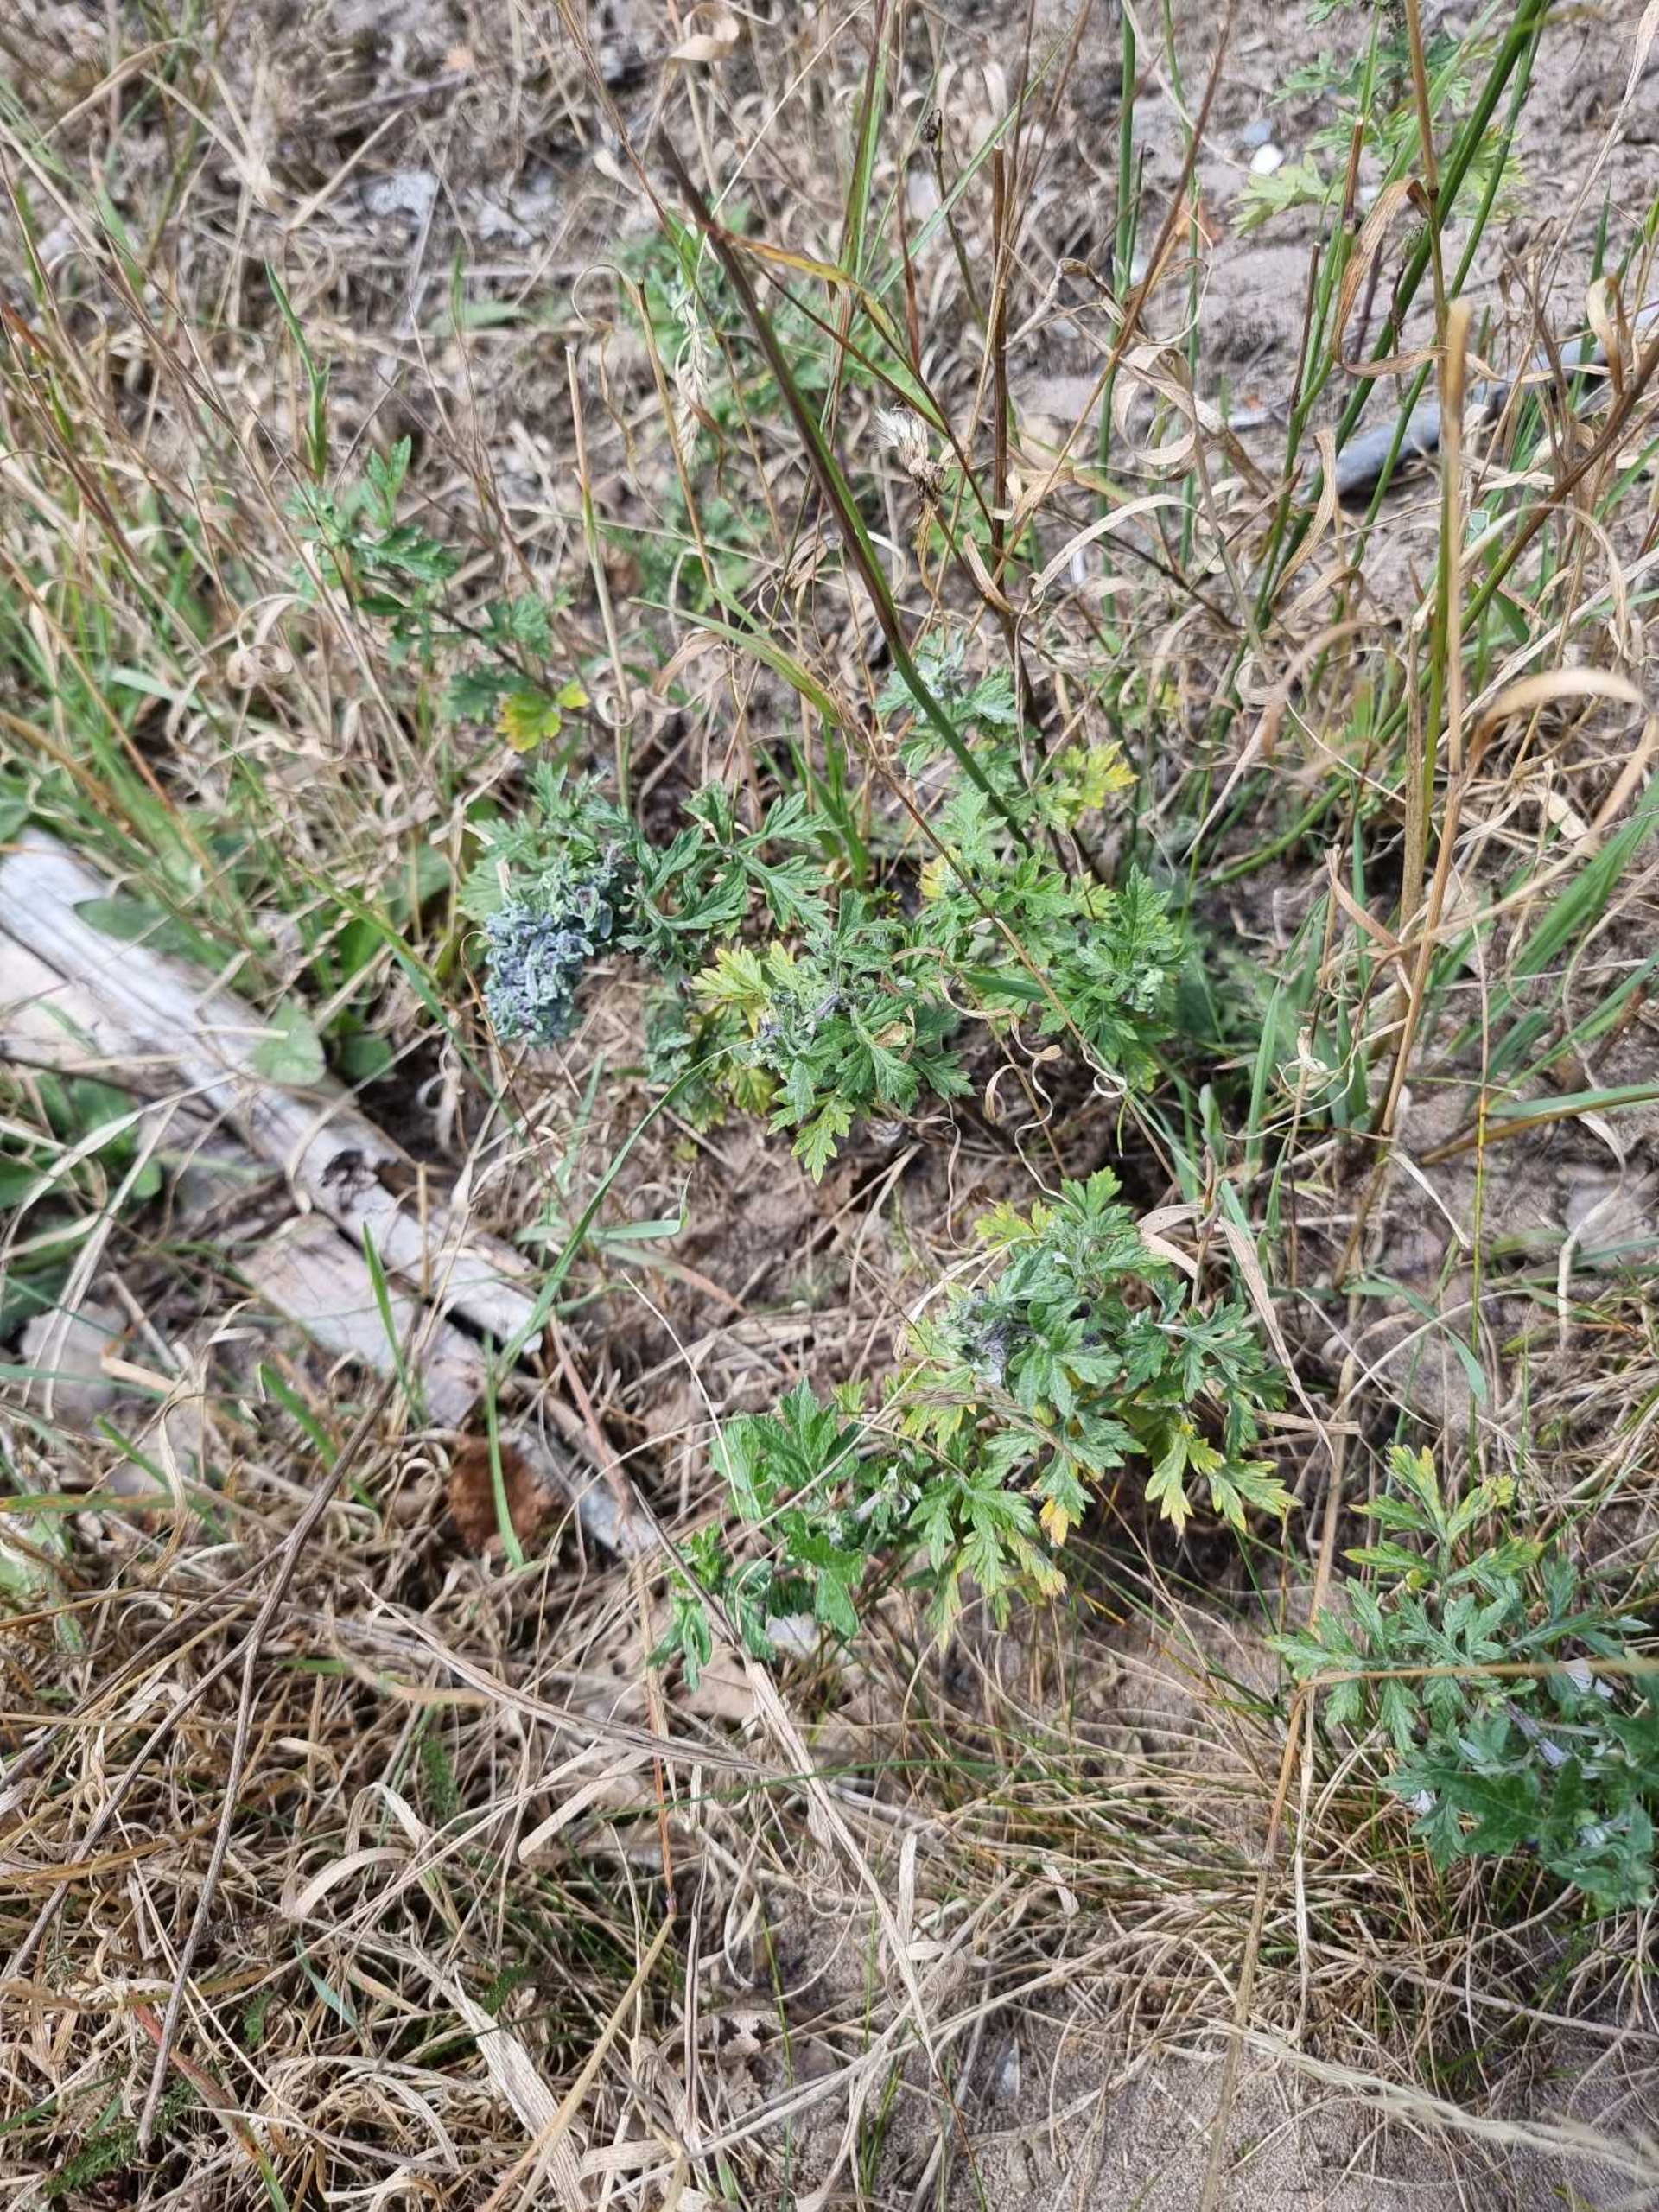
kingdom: Animalia
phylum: Arthropoda
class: Insecta
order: Hemiptera
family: Aphididae
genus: Cryptosiphum
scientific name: Cryptosiphum artemisiae
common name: Bynkegallelus
